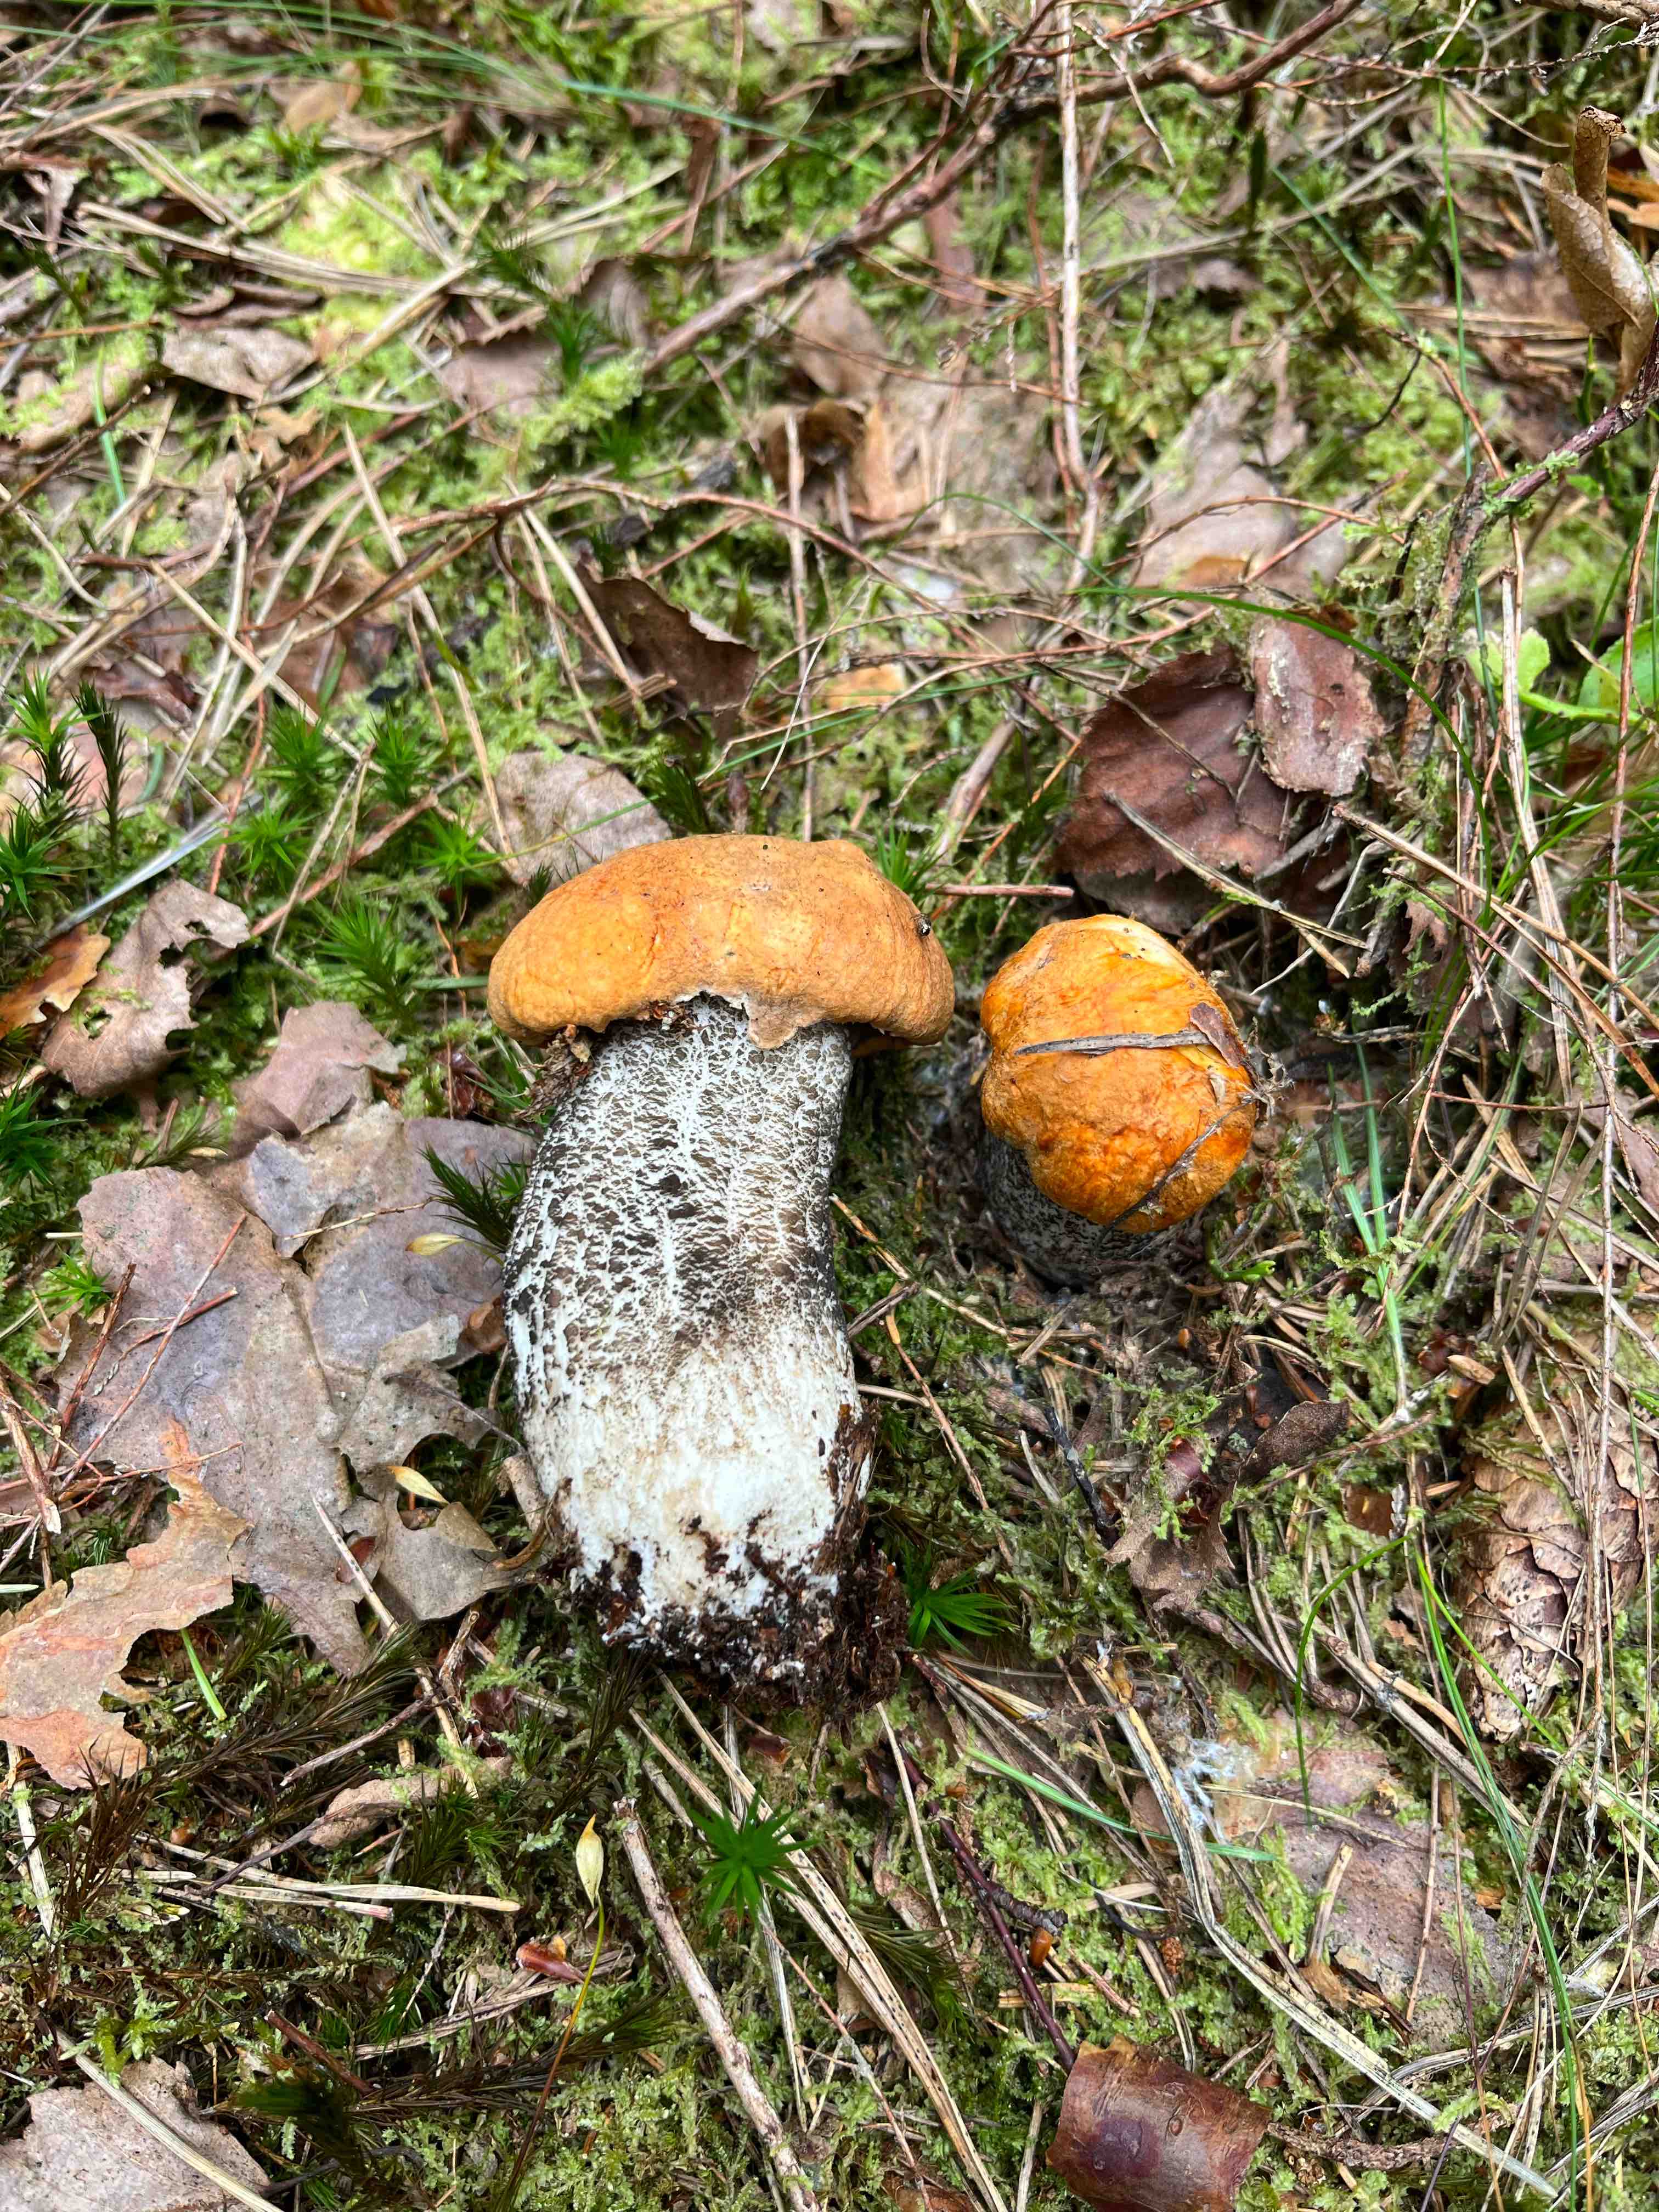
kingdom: Fungi
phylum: Basidiomycota
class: Agaricomycetes
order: Boletales
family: Boletaceae
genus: Leccinum
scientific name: Leccinum versipelle
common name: orange skælrørhat
